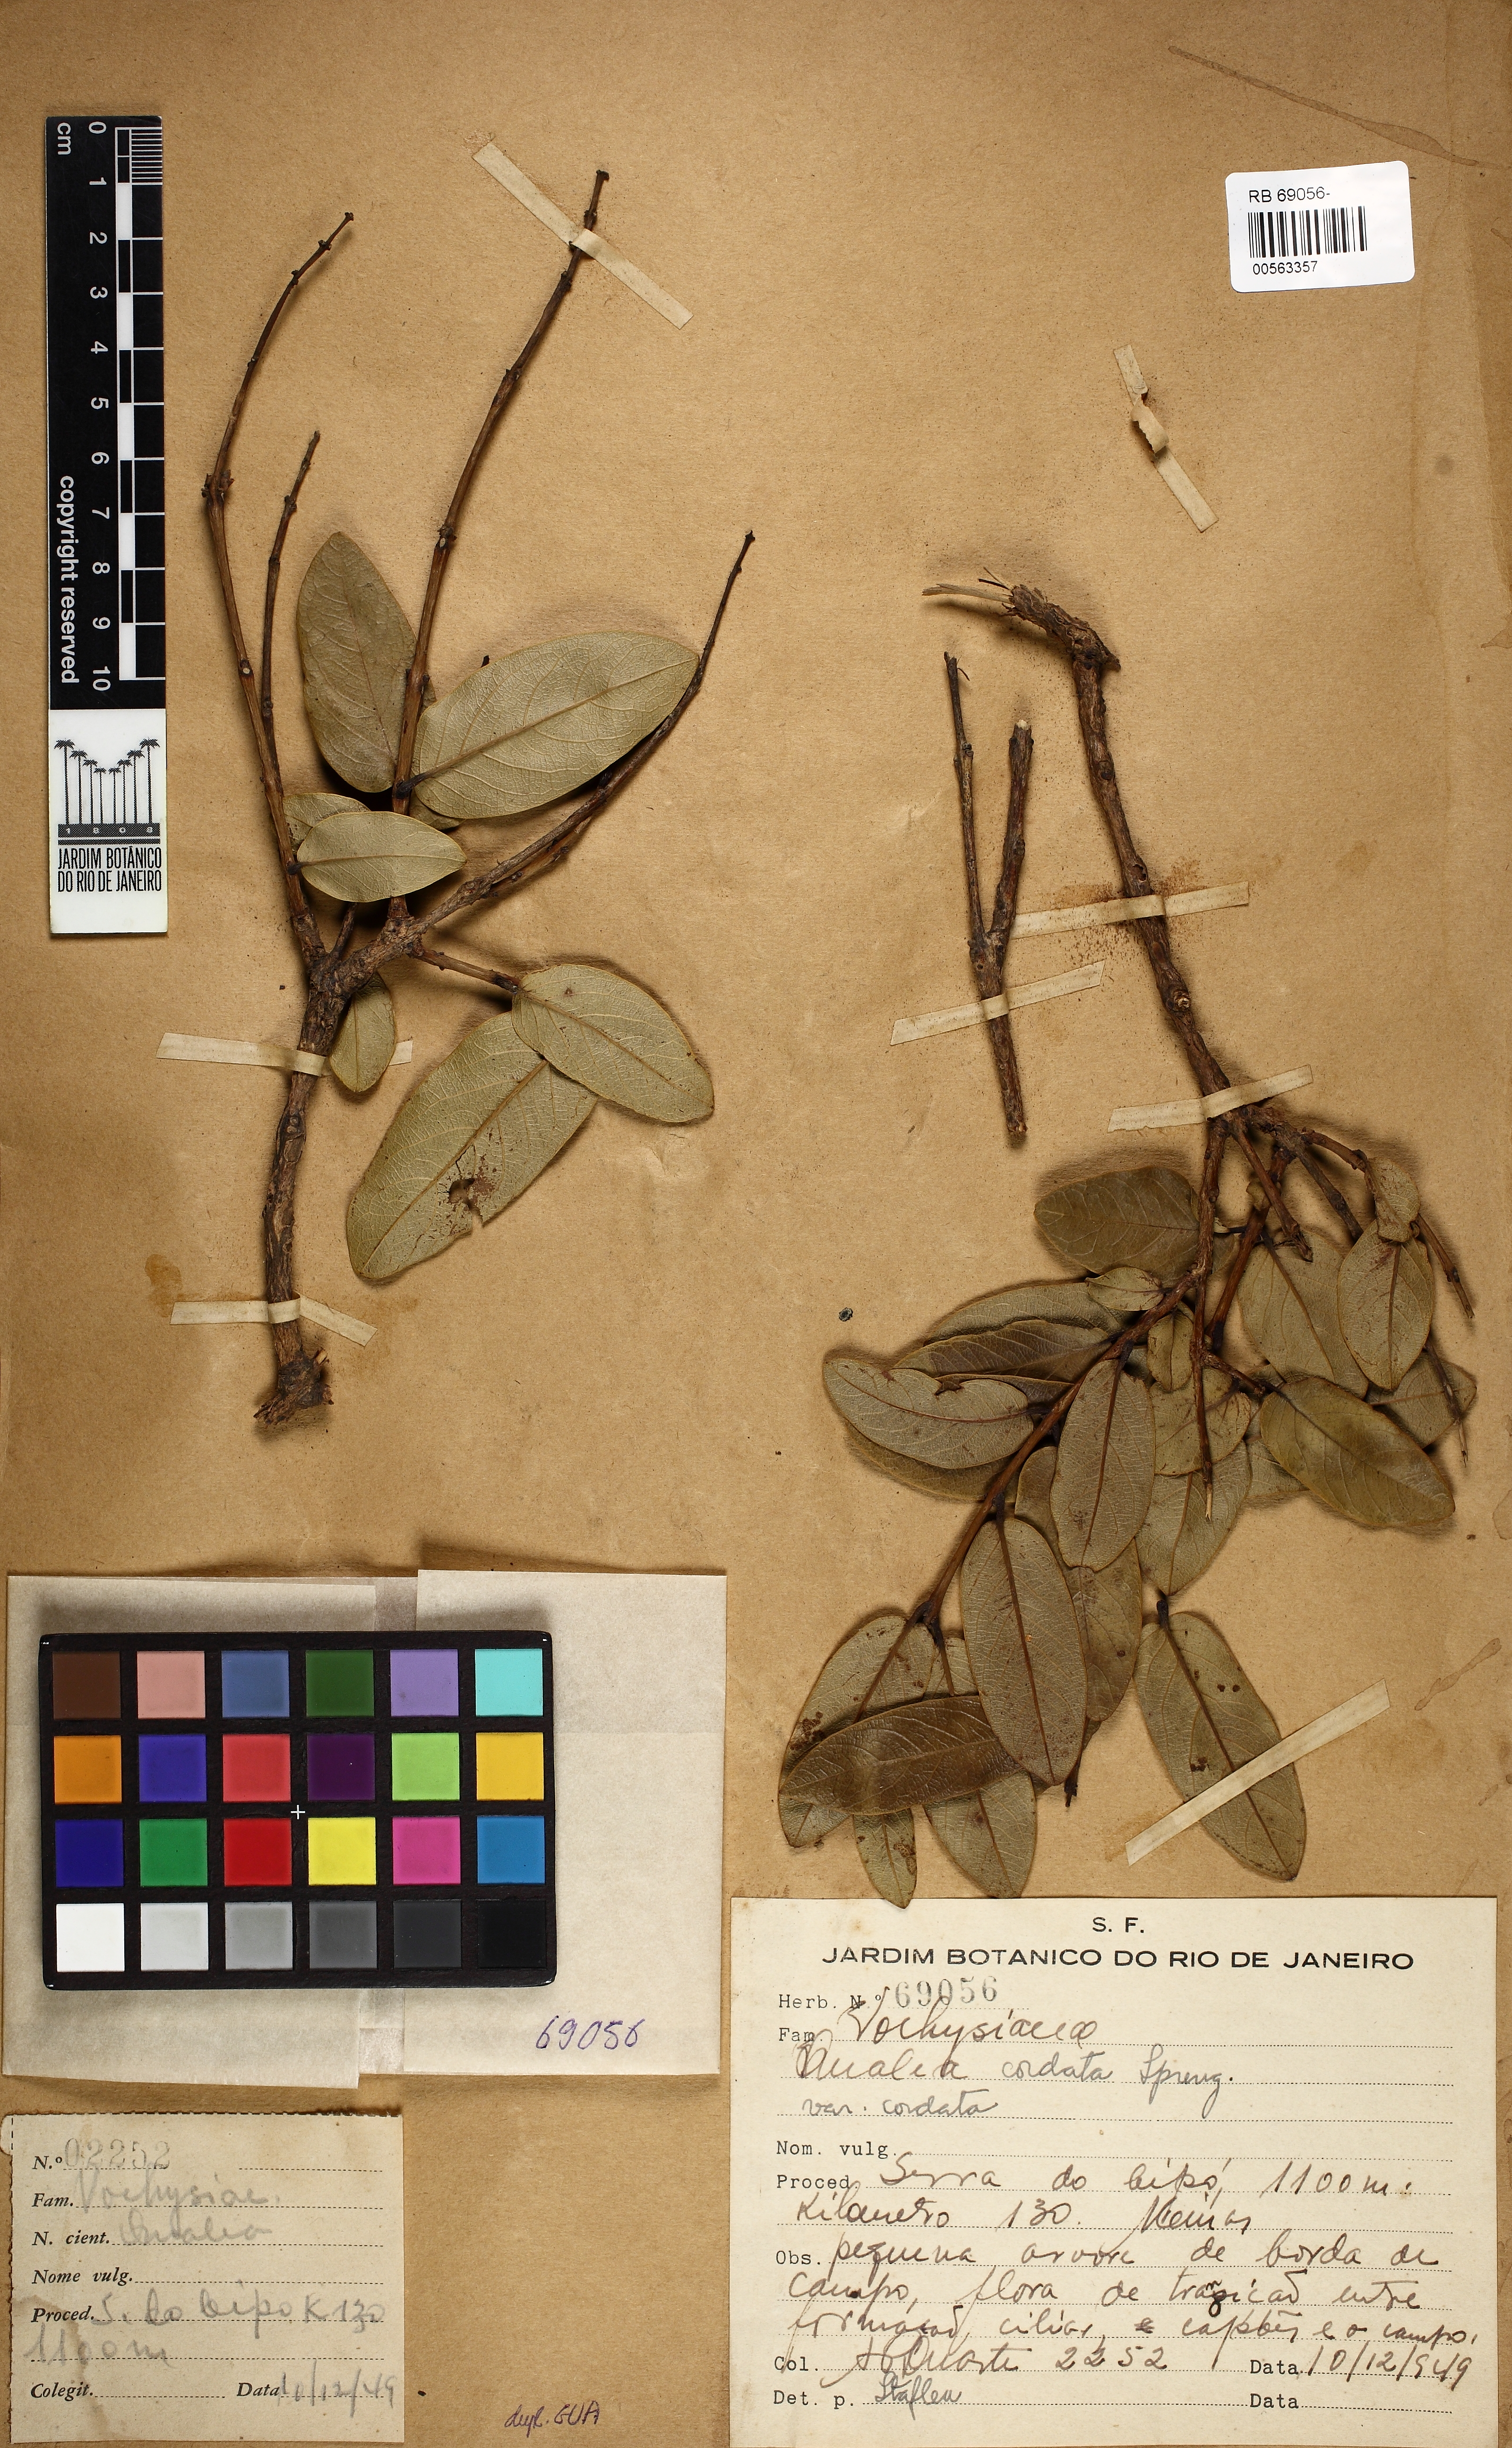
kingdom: Plantae
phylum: Tracheophyta
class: Magnoliopsida
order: Myrtales
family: Vochysiaceae
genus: Qualea
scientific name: Qualea cordata
